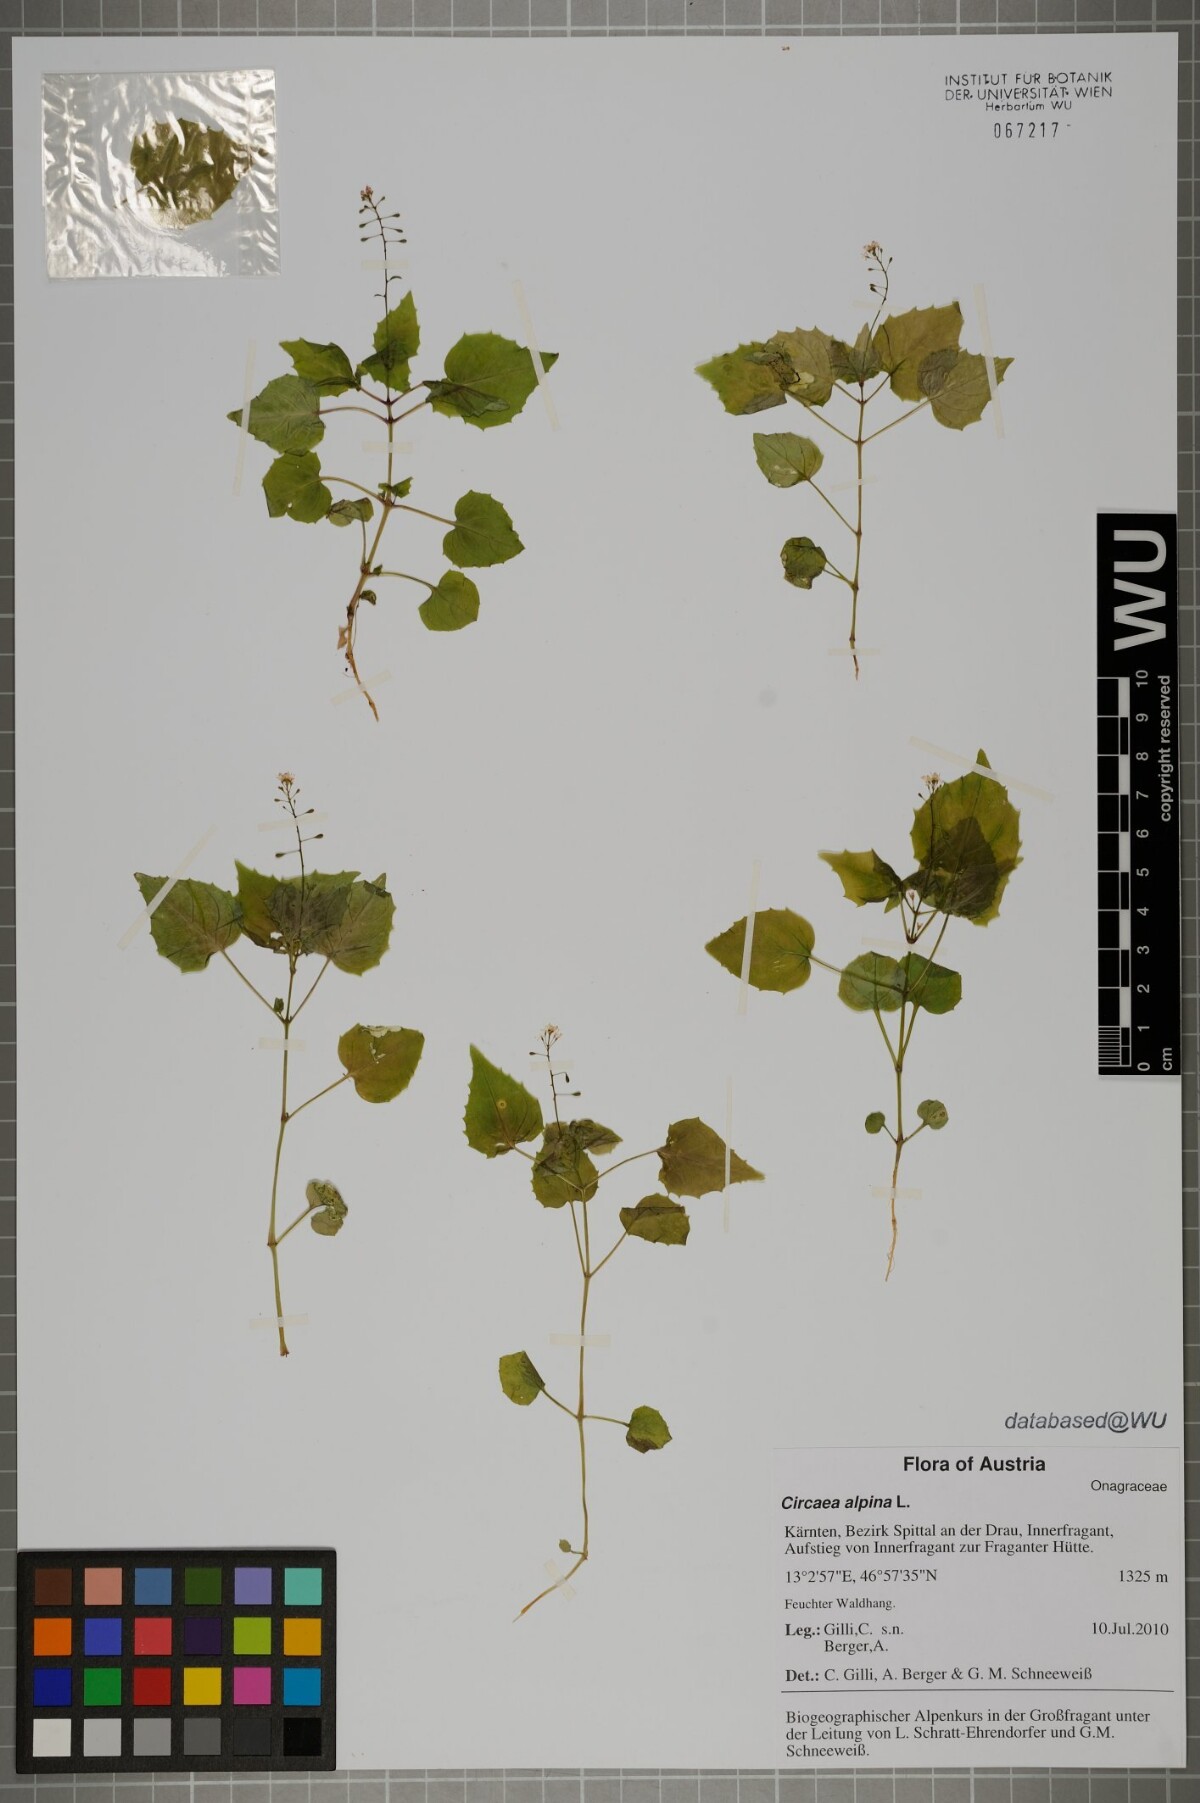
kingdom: Plantae
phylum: Tracheophyta
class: Magnoliopsida
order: Myrtales
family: Onagraceae
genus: Circaea
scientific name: Circaea alpina
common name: Alpine enchanter's-nightshade
